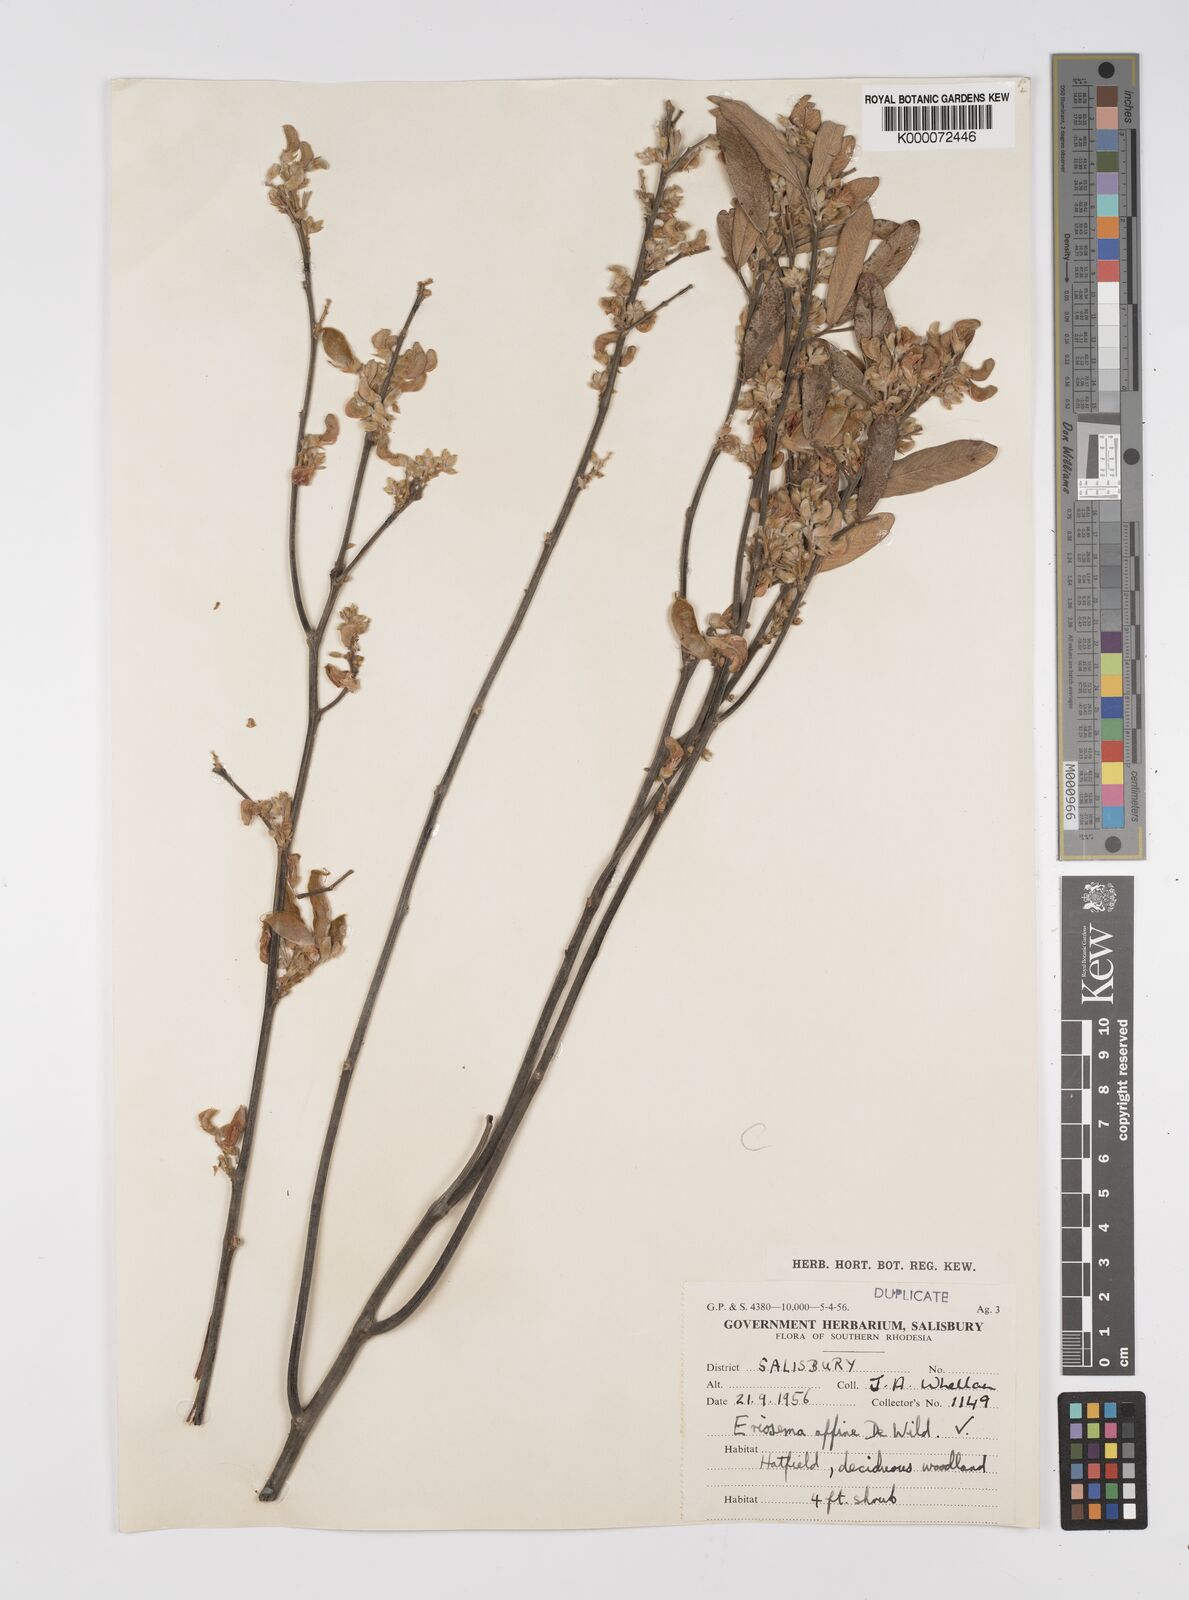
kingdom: Plantae
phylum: Tracheophyta
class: Magnoliopsida
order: Fabales
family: Fabaceae
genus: Eriosema
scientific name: Eriosema affine
